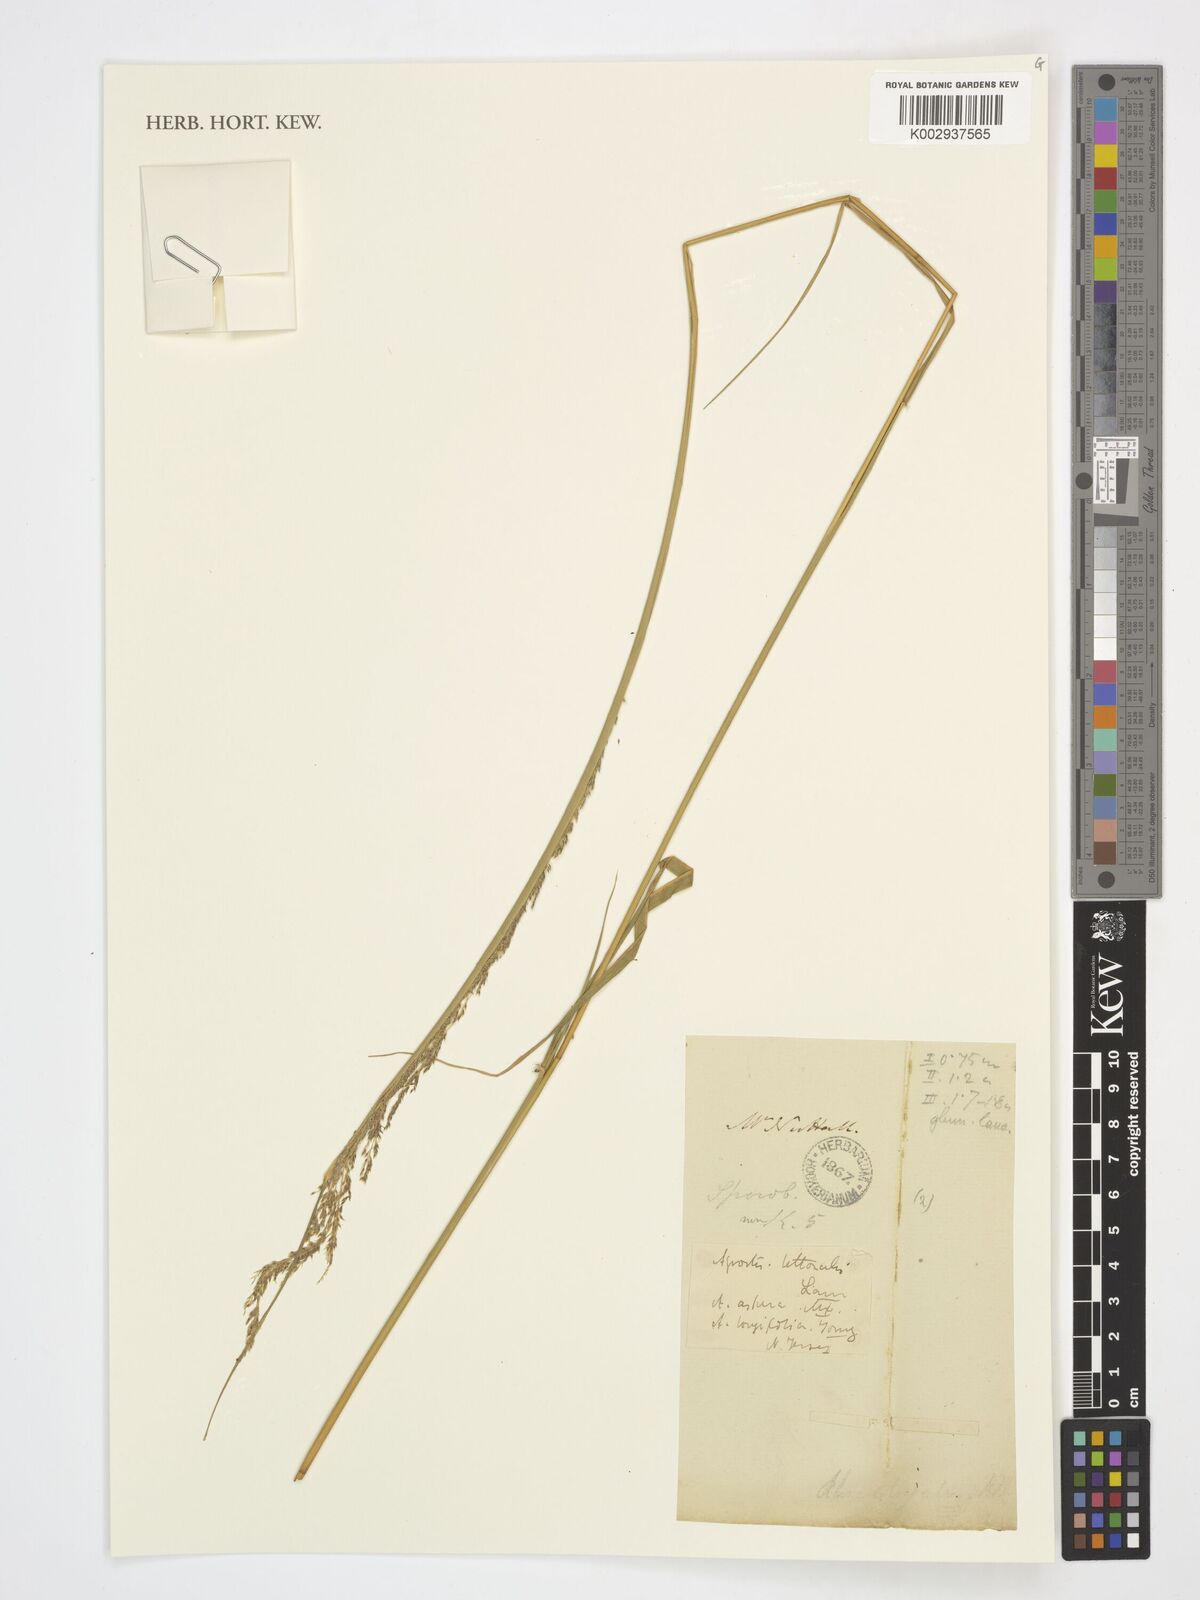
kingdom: Plantae
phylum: Tracheophyta
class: Liliopsida
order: Poales
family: Poaceae
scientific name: Poaceae
